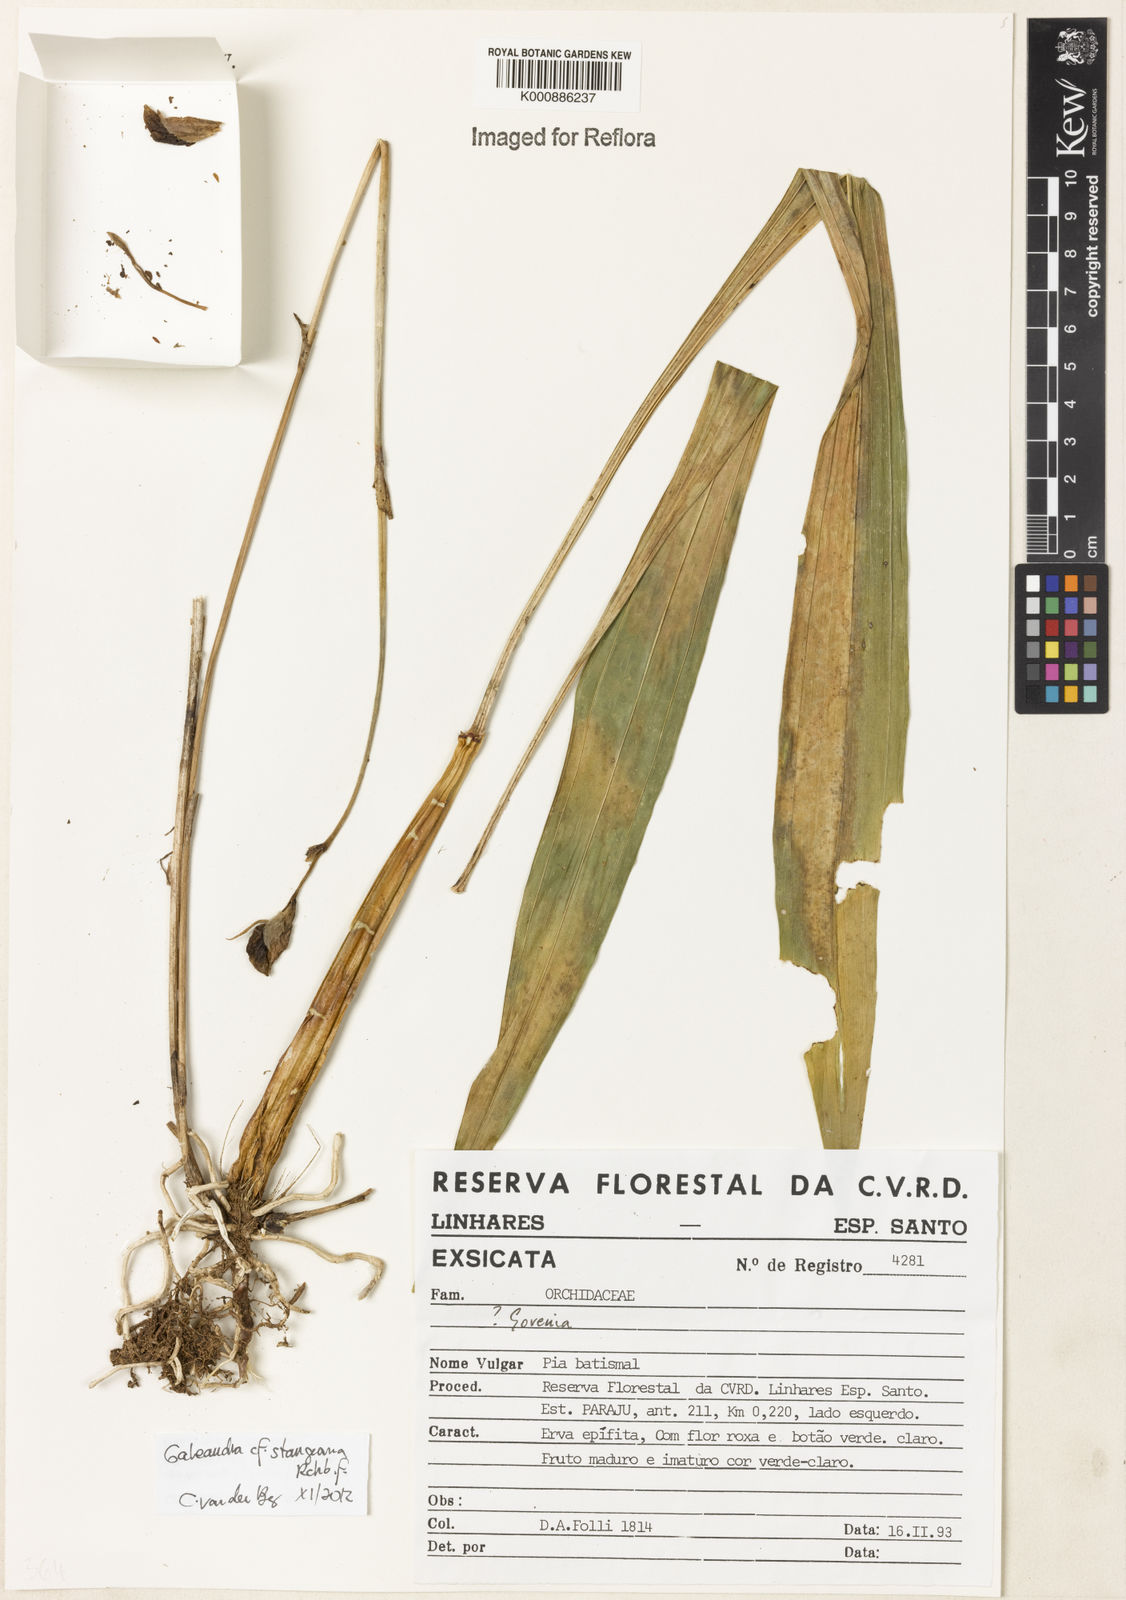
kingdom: Plantae
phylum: Tracheophyta
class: Liliopsida
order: Asparagales
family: Orchidaceae
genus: Galeandra
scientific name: Galeandra stangeana
